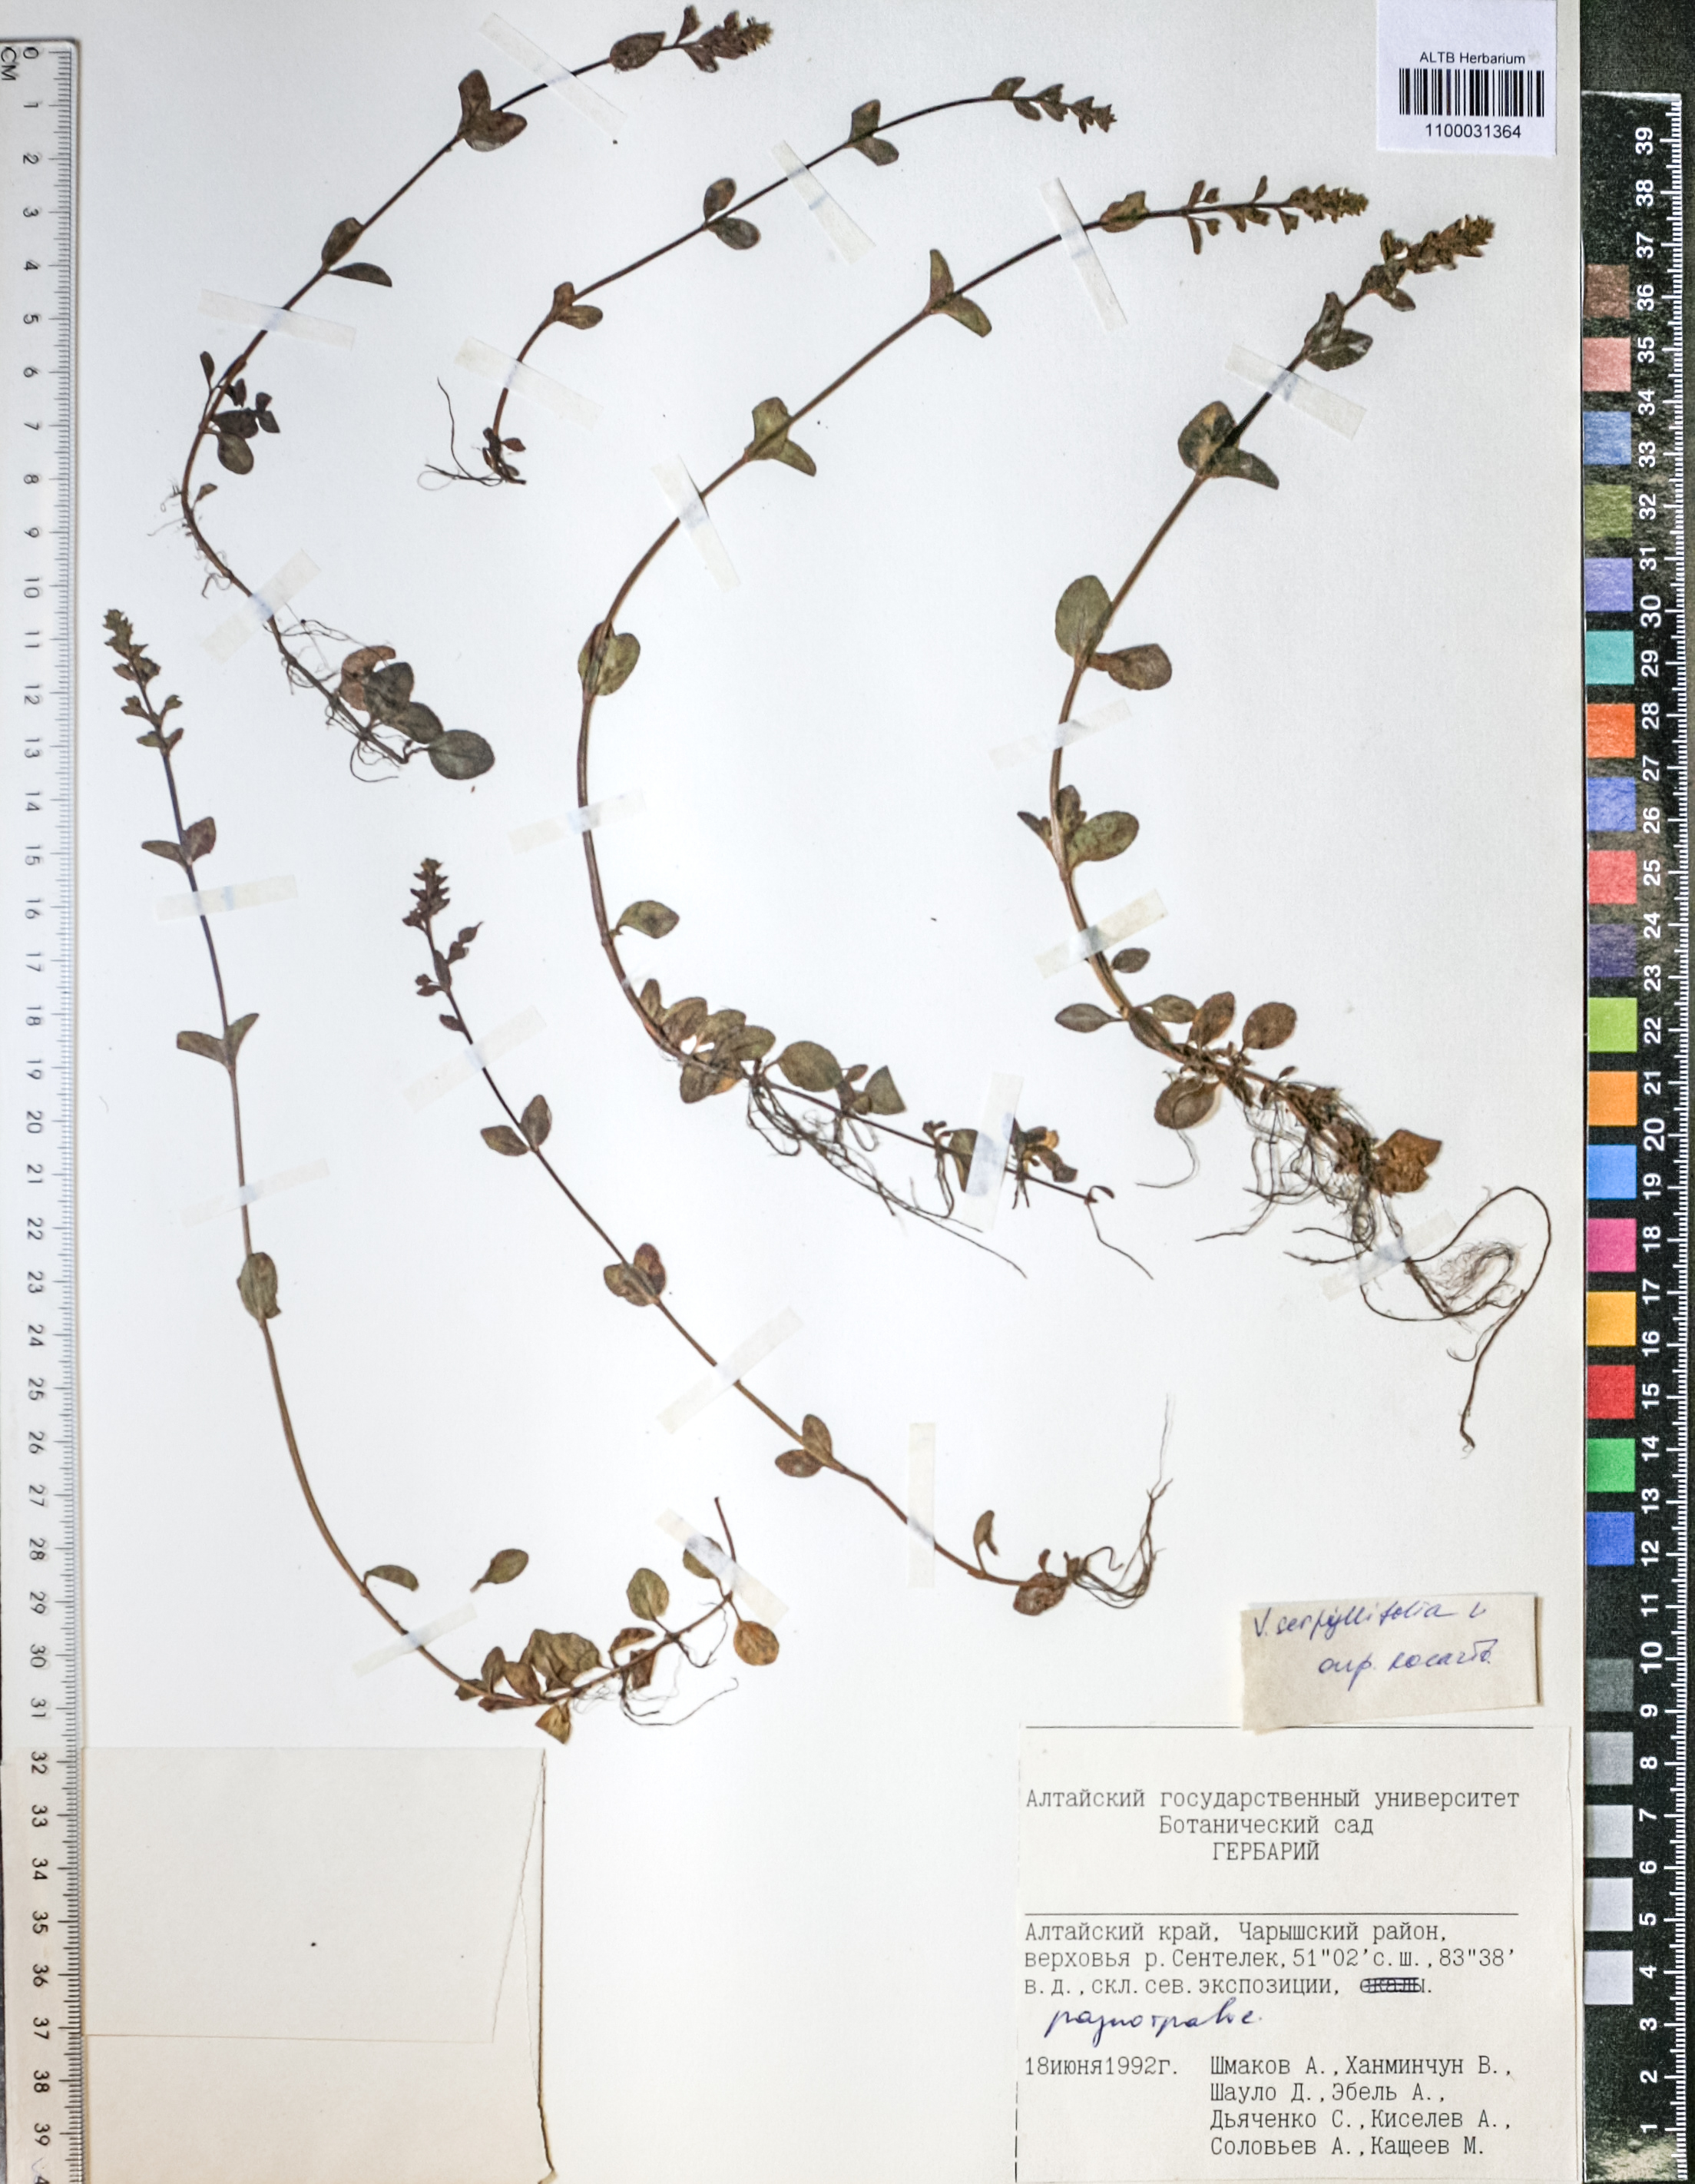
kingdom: Plantae
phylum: Tracheophyta
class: Magnoliopsida
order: Lamiales
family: Plantaginaceae
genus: Veronica
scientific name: Veronica serpyllifolia
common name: Thyme-leaved speedwell
